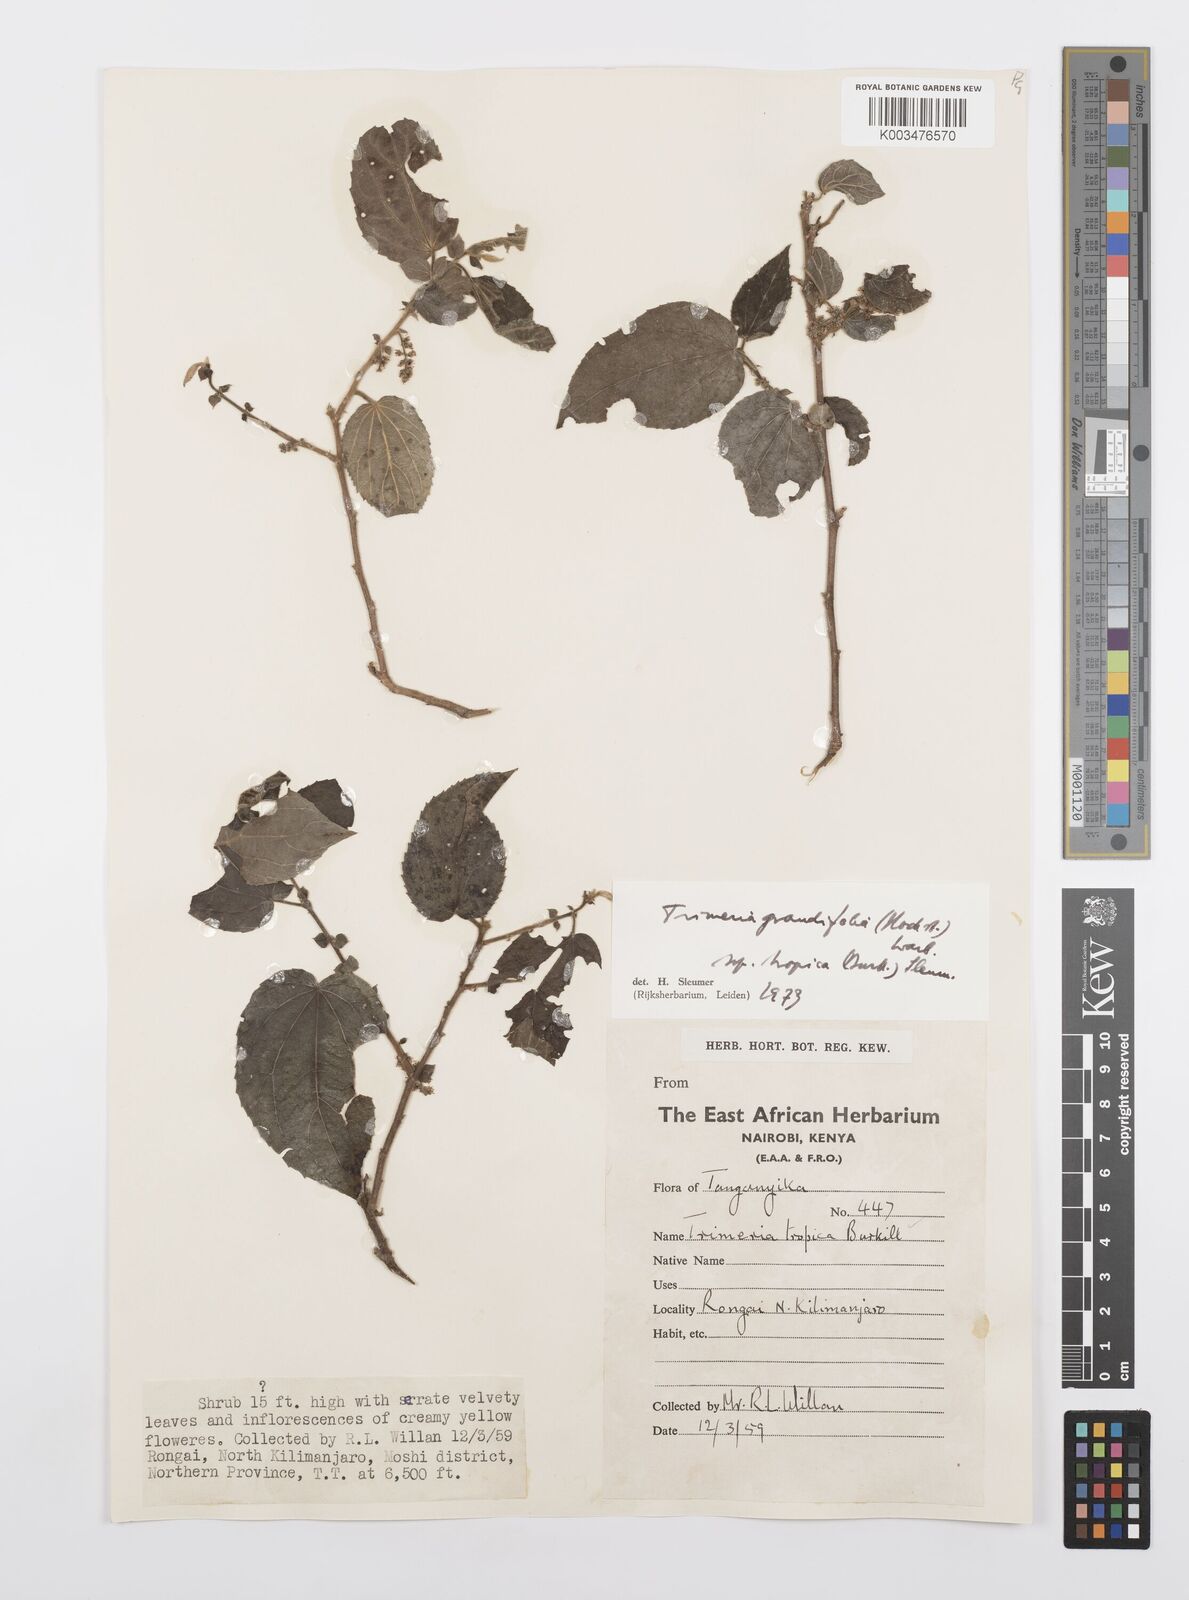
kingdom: Plantae
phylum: Tracheophyta
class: Magnoliopsida
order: Malpighiales
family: Salicaceae
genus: Trimeria
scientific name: Trimeria grandifolia
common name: Wild mulberry
